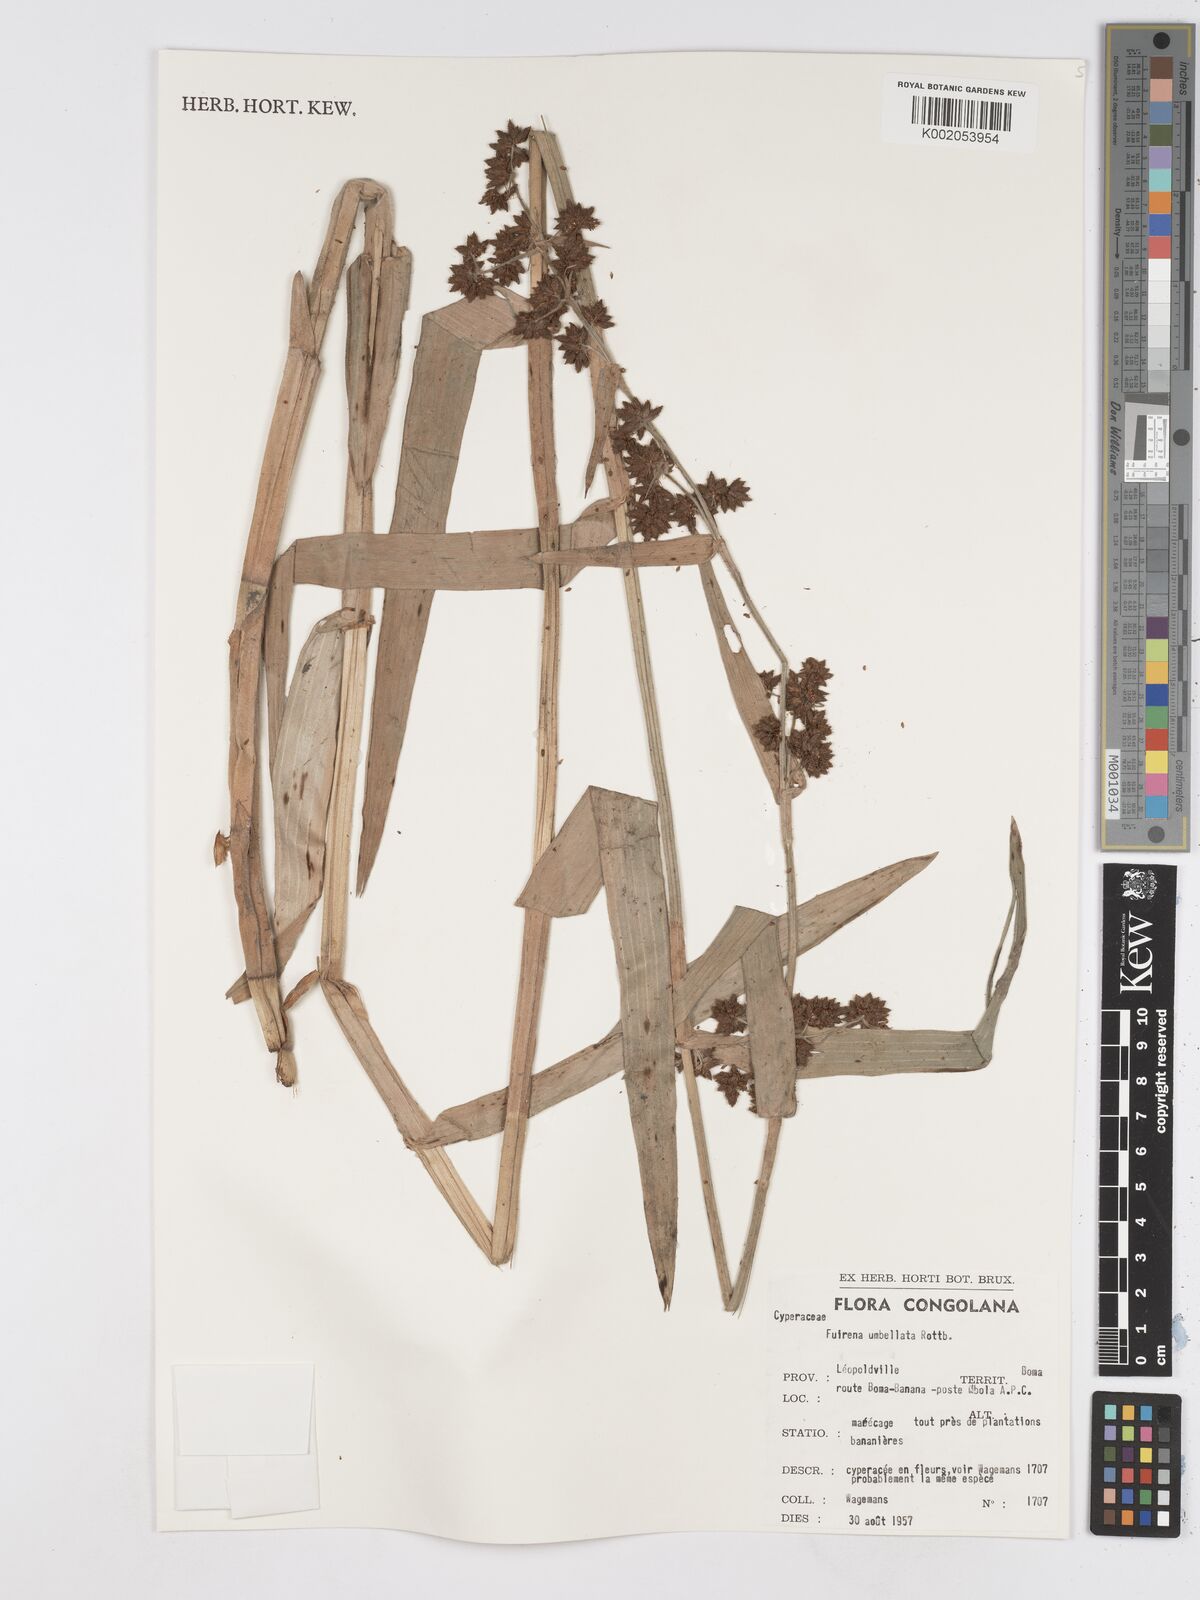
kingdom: Plantae
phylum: Tracheophyta
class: Liliopsida
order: Poales
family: Cyperaceae
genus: Fuirena
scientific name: Fuirena umbellata
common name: Yefen
